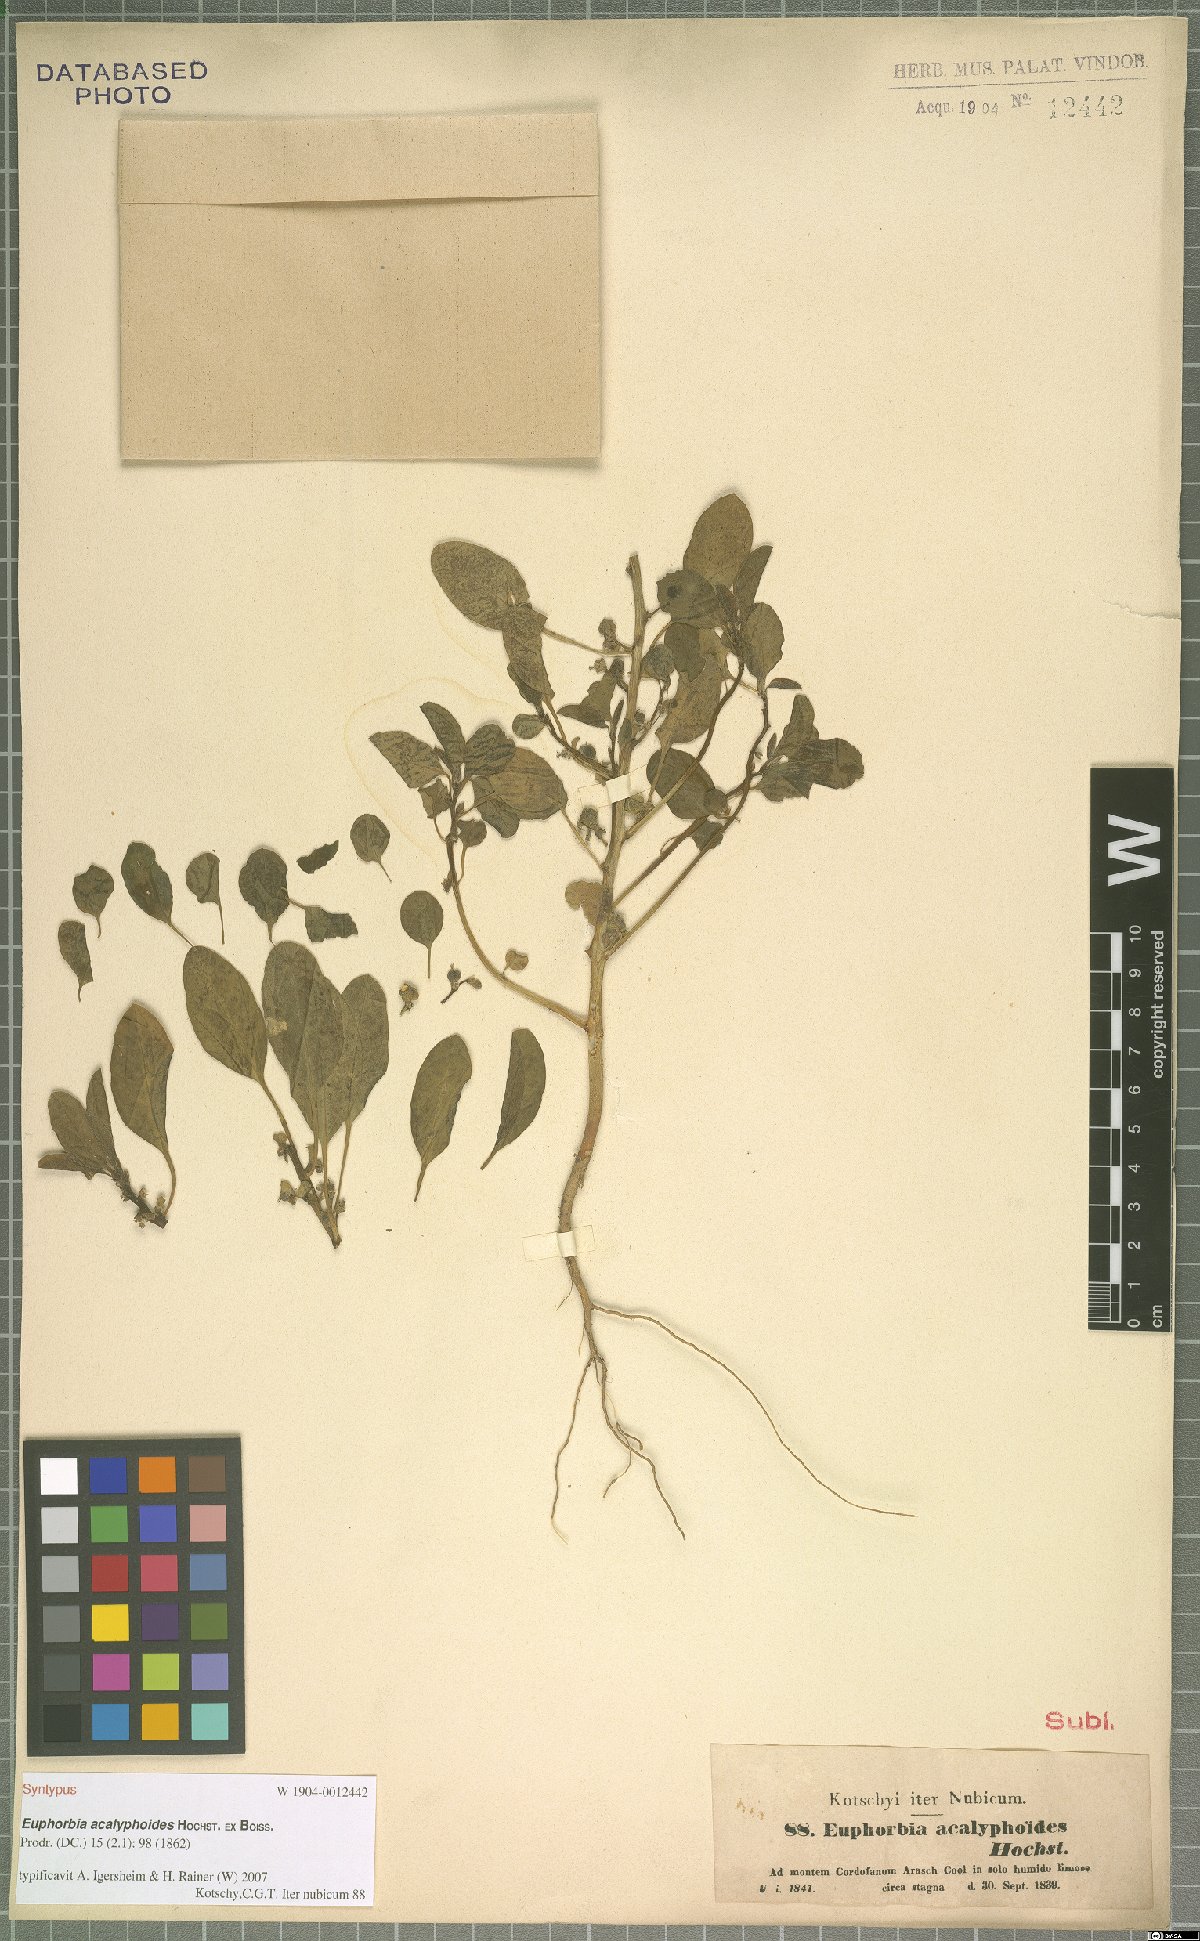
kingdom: Plantae
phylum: Tracheophyta
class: Magnoliopsida
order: Malpighiales
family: Euphorbiaceae
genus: Euphorbia
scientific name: Euphorbia acalyphoides
